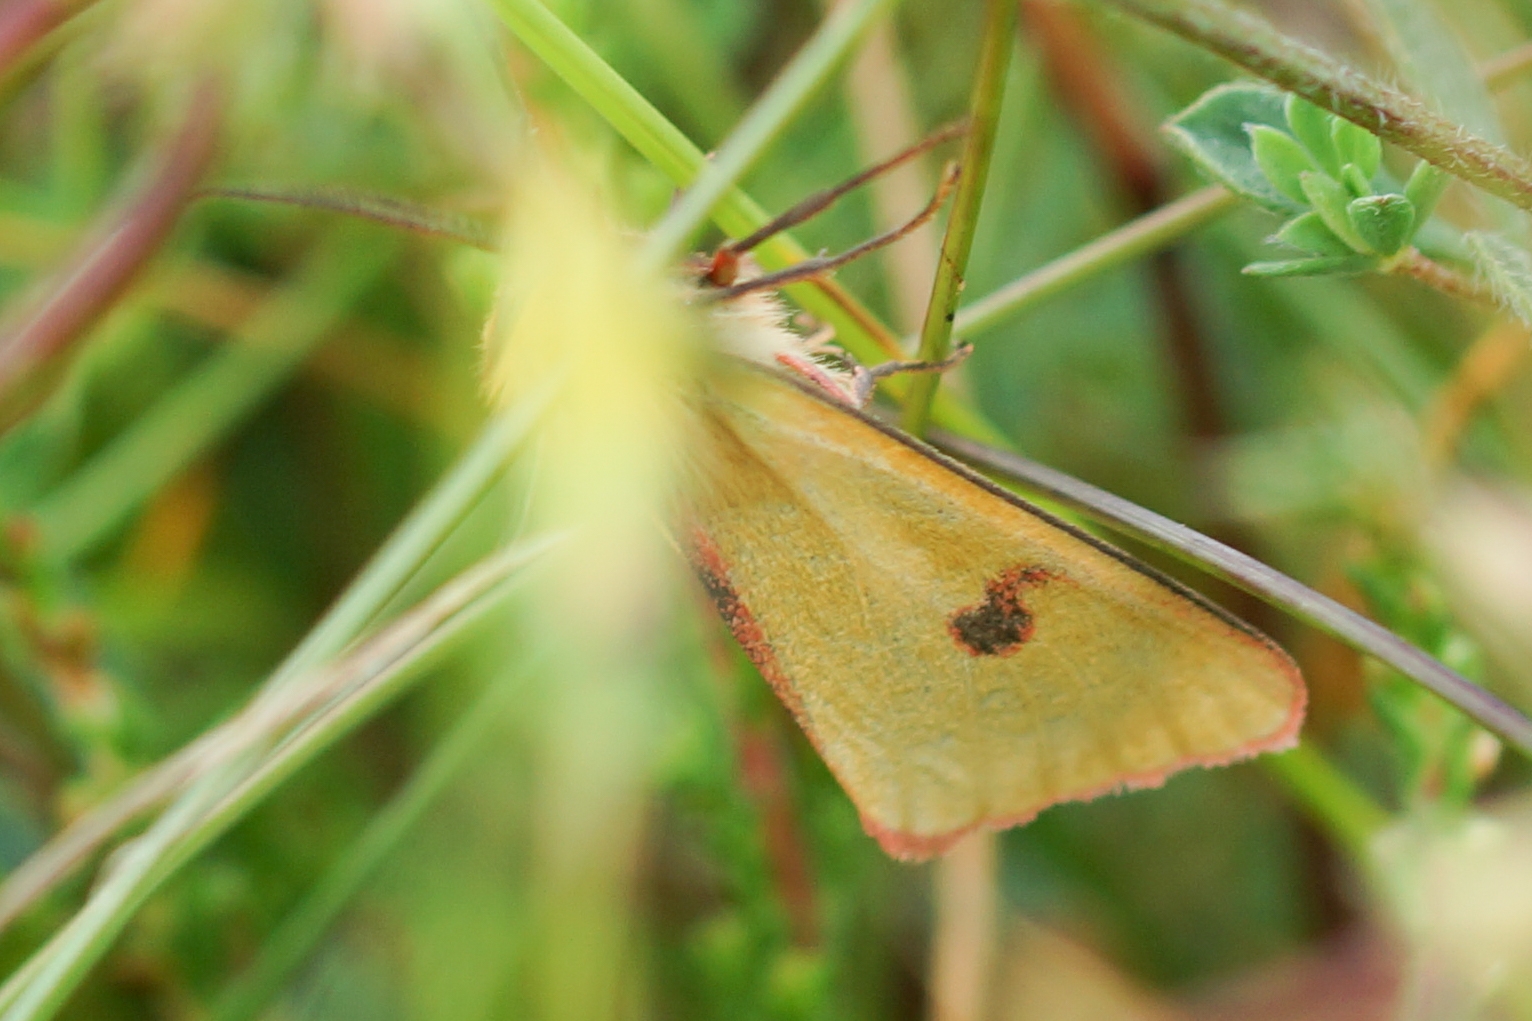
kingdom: Animalia
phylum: Arthropoda
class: Insecta
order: Lepidoptera
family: Erebidae
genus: Diacrisia
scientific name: Diacrisia sannio
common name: Rødfrynset bjørn
